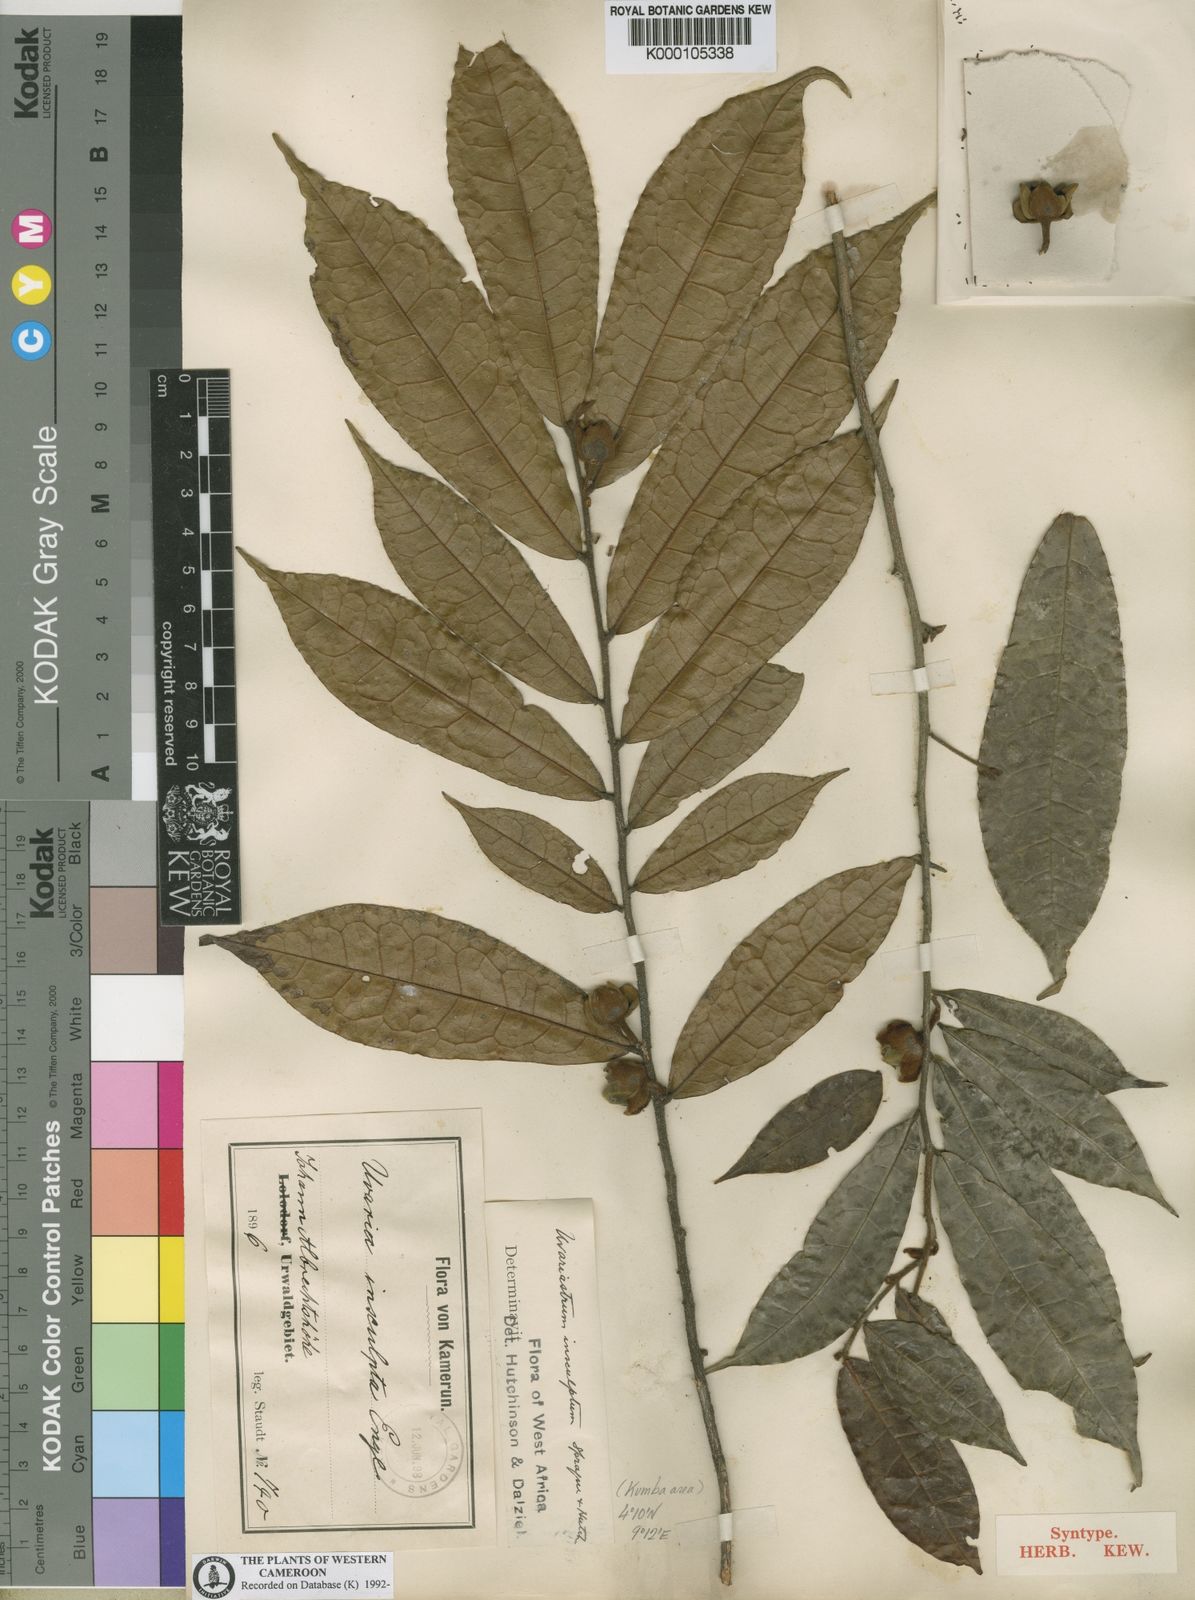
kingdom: Plantae
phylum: Tracheophyta
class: Magnoliopsida
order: Magnoliales
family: Annonaceae
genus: Uvariastrum
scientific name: Uvariastrum pierreanum
